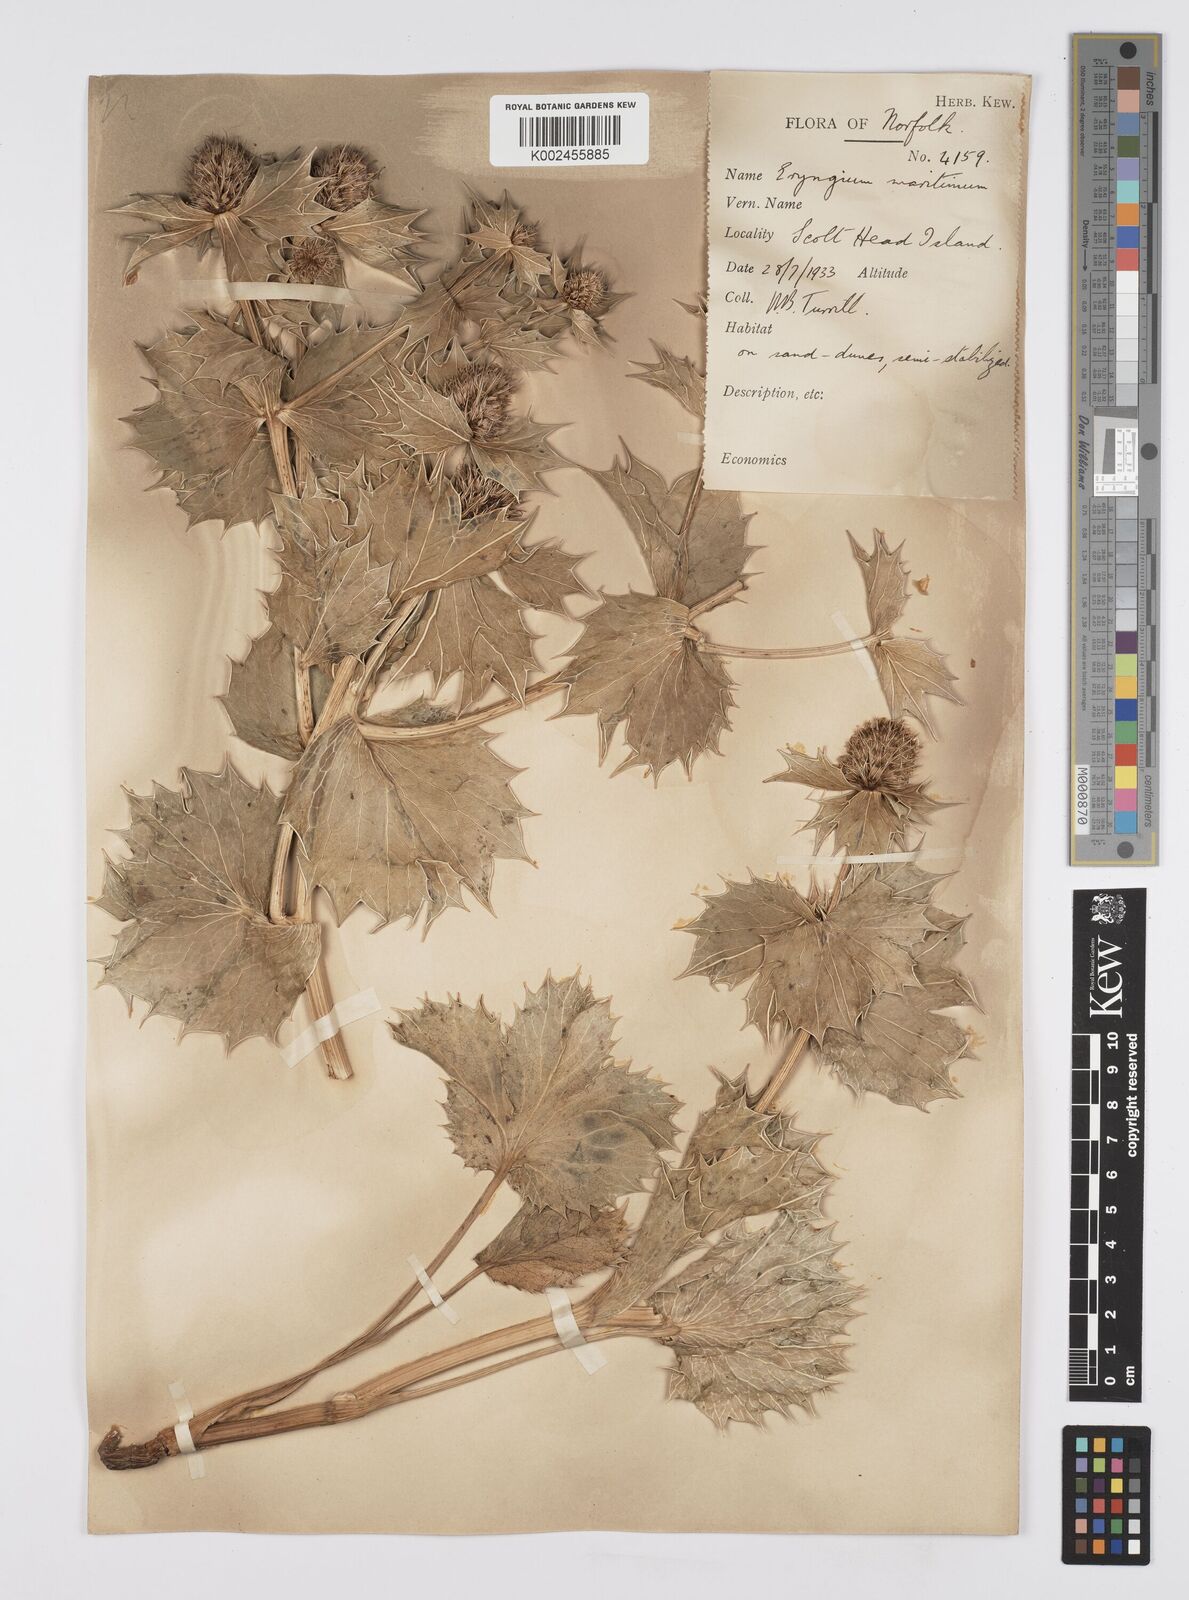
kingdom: Plantae
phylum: Tracheophyta
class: Magnoliopsida
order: Apiales
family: Apiaceae
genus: Eryngium
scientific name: Eryngium maritimum
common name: Sea-holly
